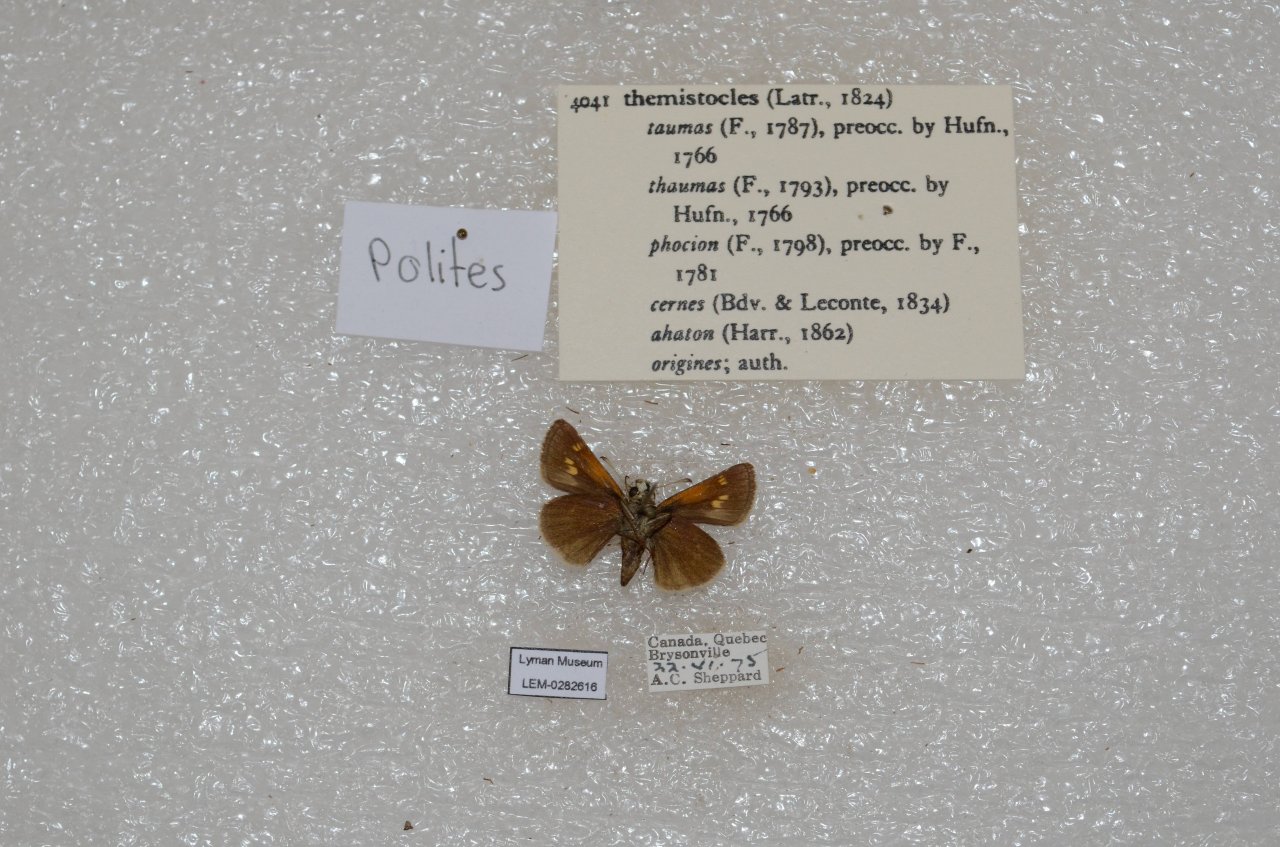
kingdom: Animalia
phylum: Arthropoda
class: Insecta
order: Lepidoptera
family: Hesperiidae
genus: Polites
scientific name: Polites themistocles
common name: Tawny-edged Skipper
